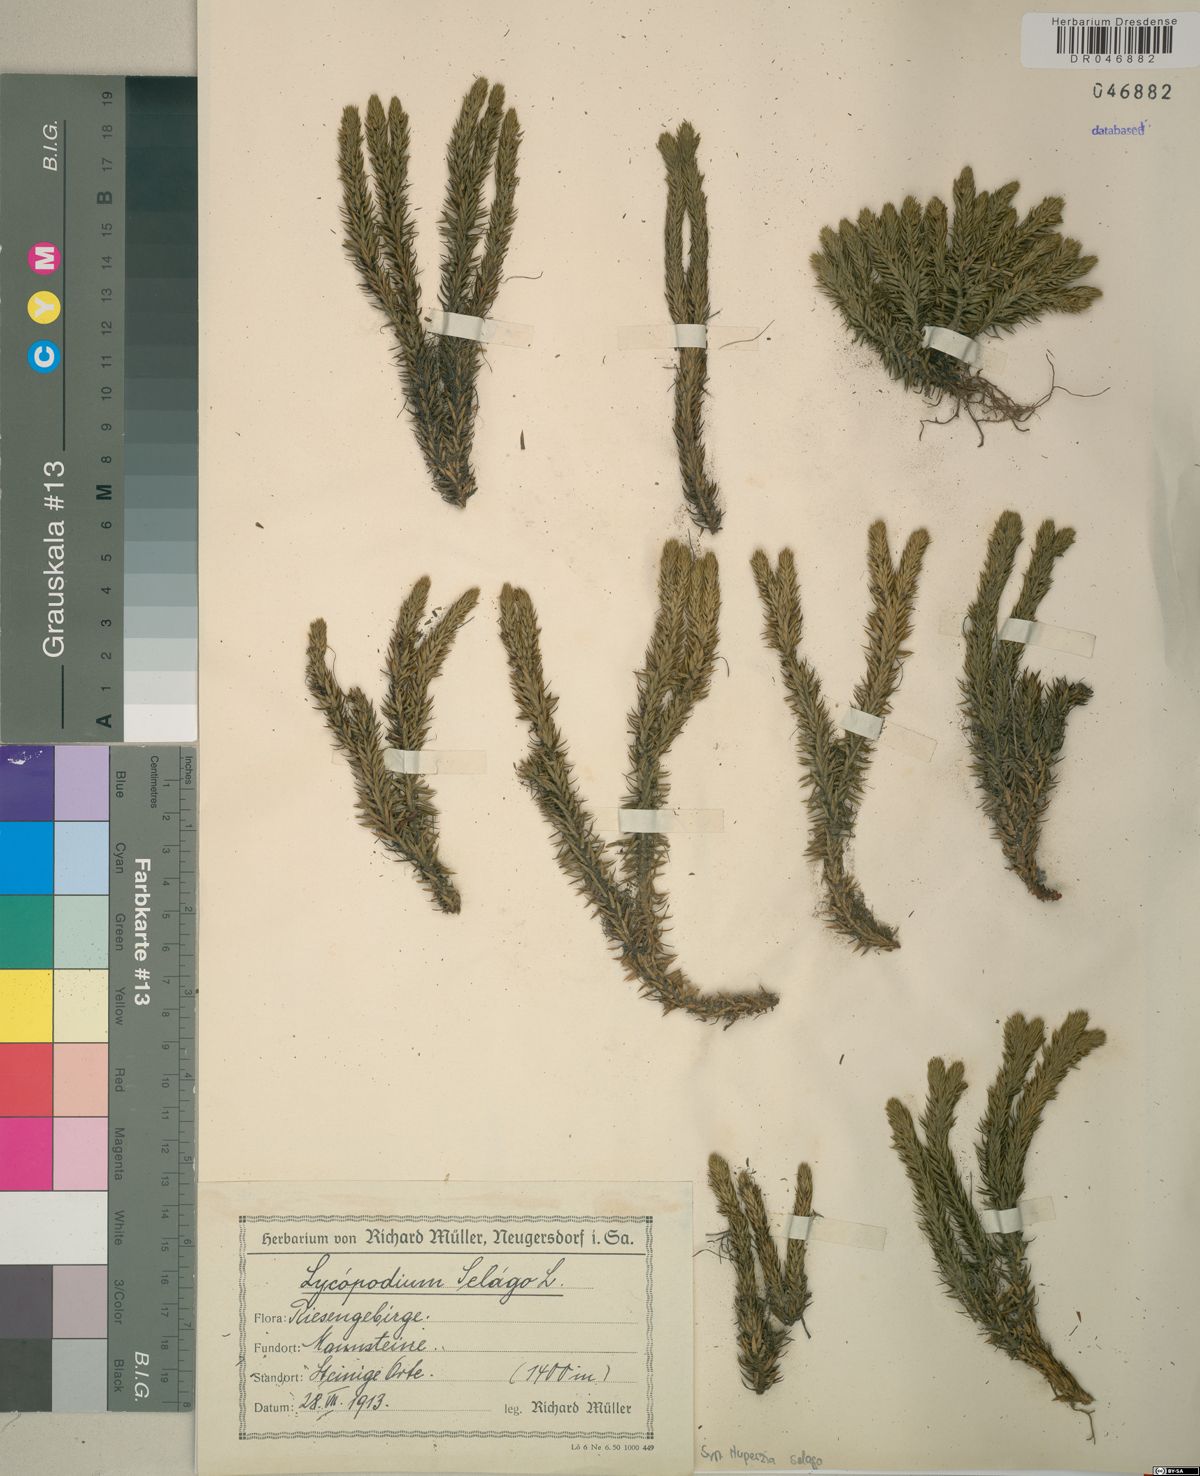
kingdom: Plantae
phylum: Tracheophyta
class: Lycopodiopsida
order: Lycopodiales
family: Lycopodiaceae
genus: Huperzia
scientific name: Huperzia selago
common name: Northern firmoss
